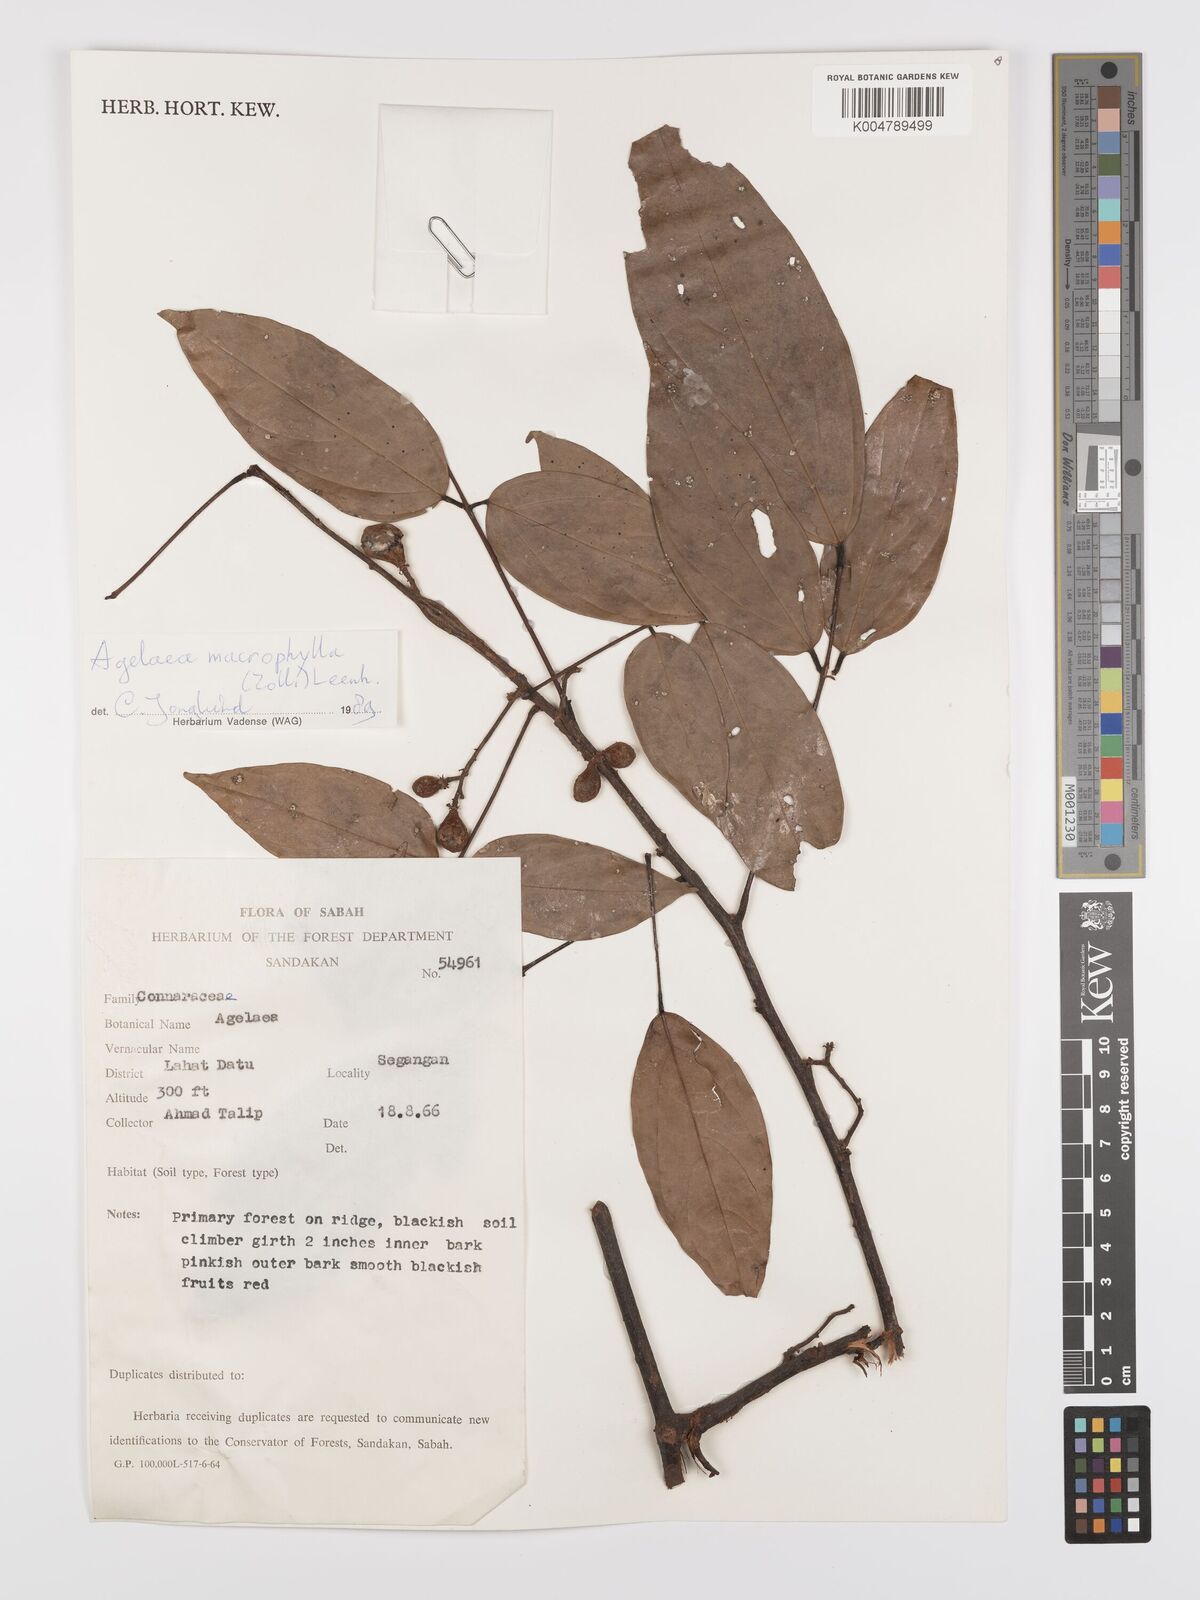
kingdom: Plantae
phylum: Tracheophyta
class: Magnoliopsida
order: Oxalidales
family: Connaraceae
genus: Agelaea
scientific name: Agelaea macrophylla
